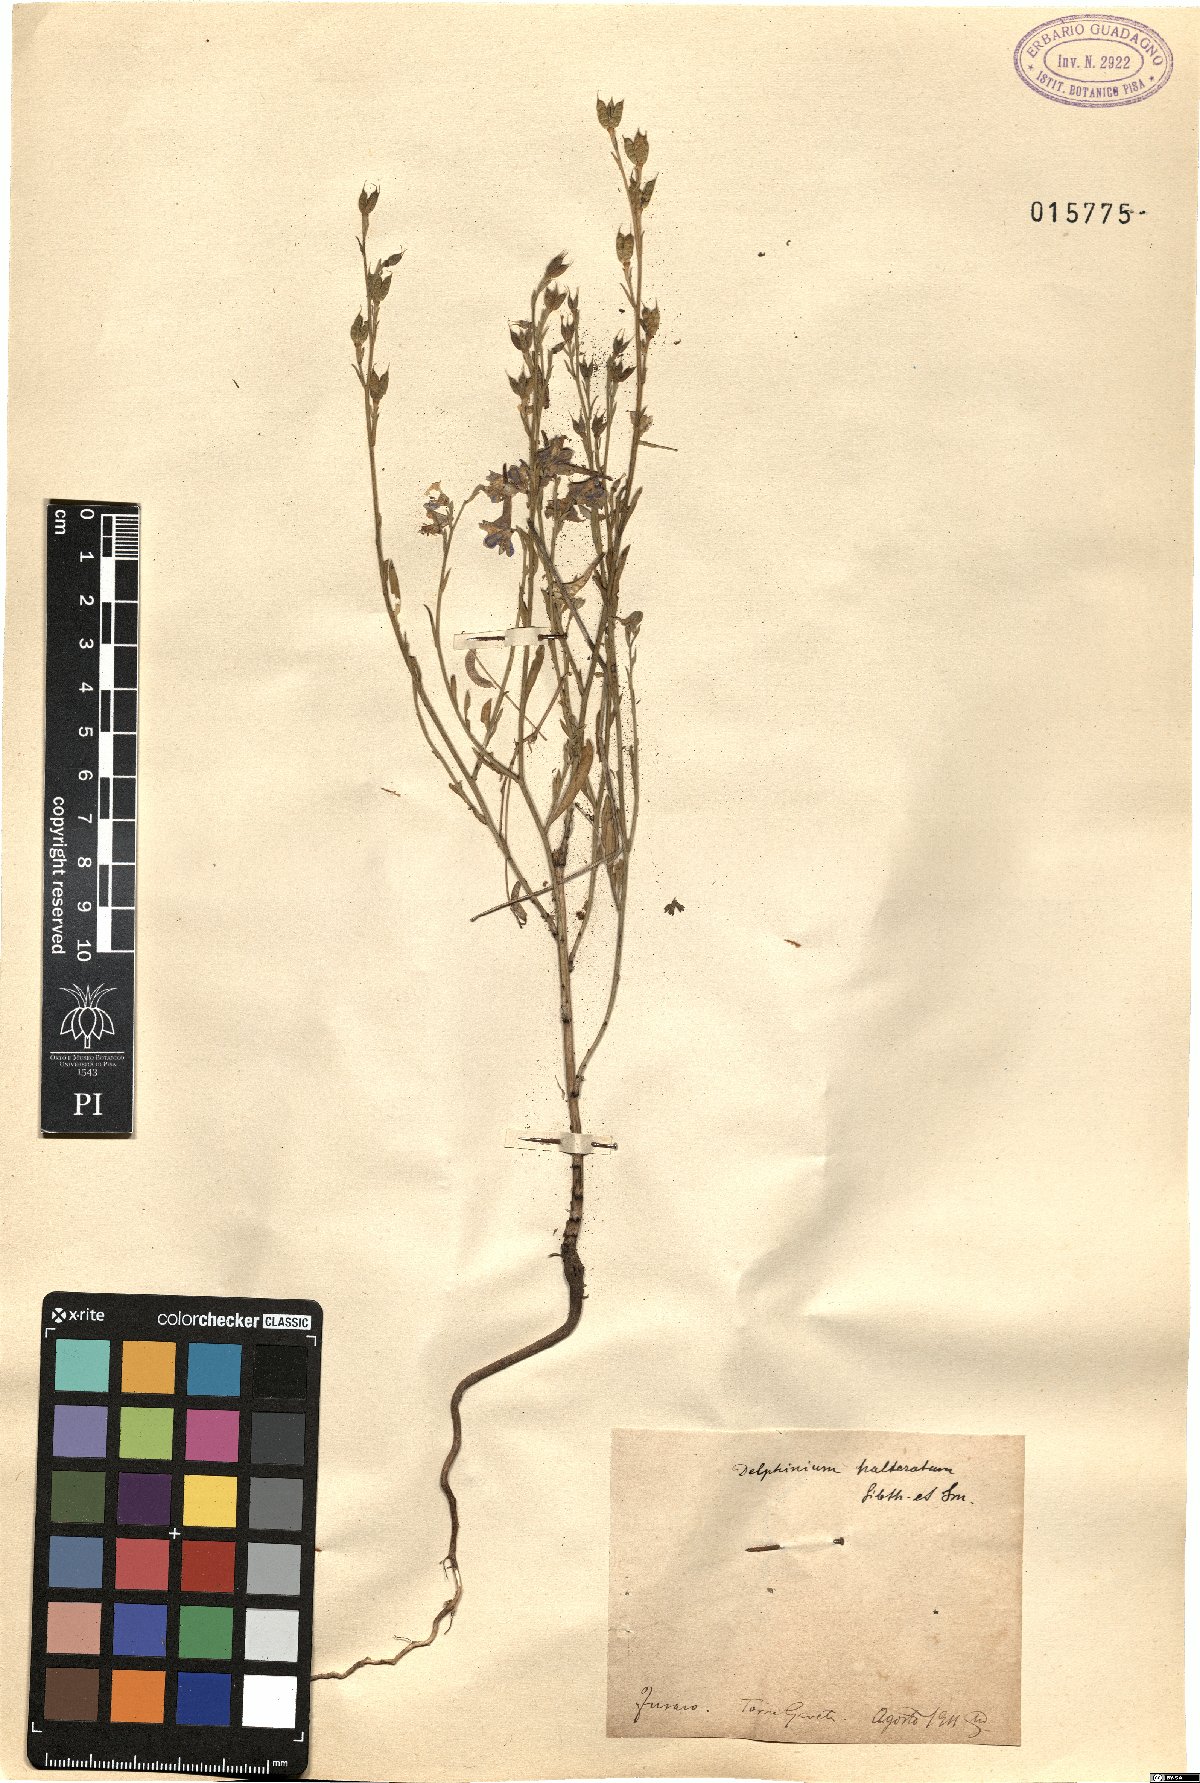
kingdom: Plantae
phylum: Tracheophyta
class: Magnoliopsida
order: Ranunculales
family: Ranunculaceae
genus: Delphinium
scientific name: Delphinium halteratum
